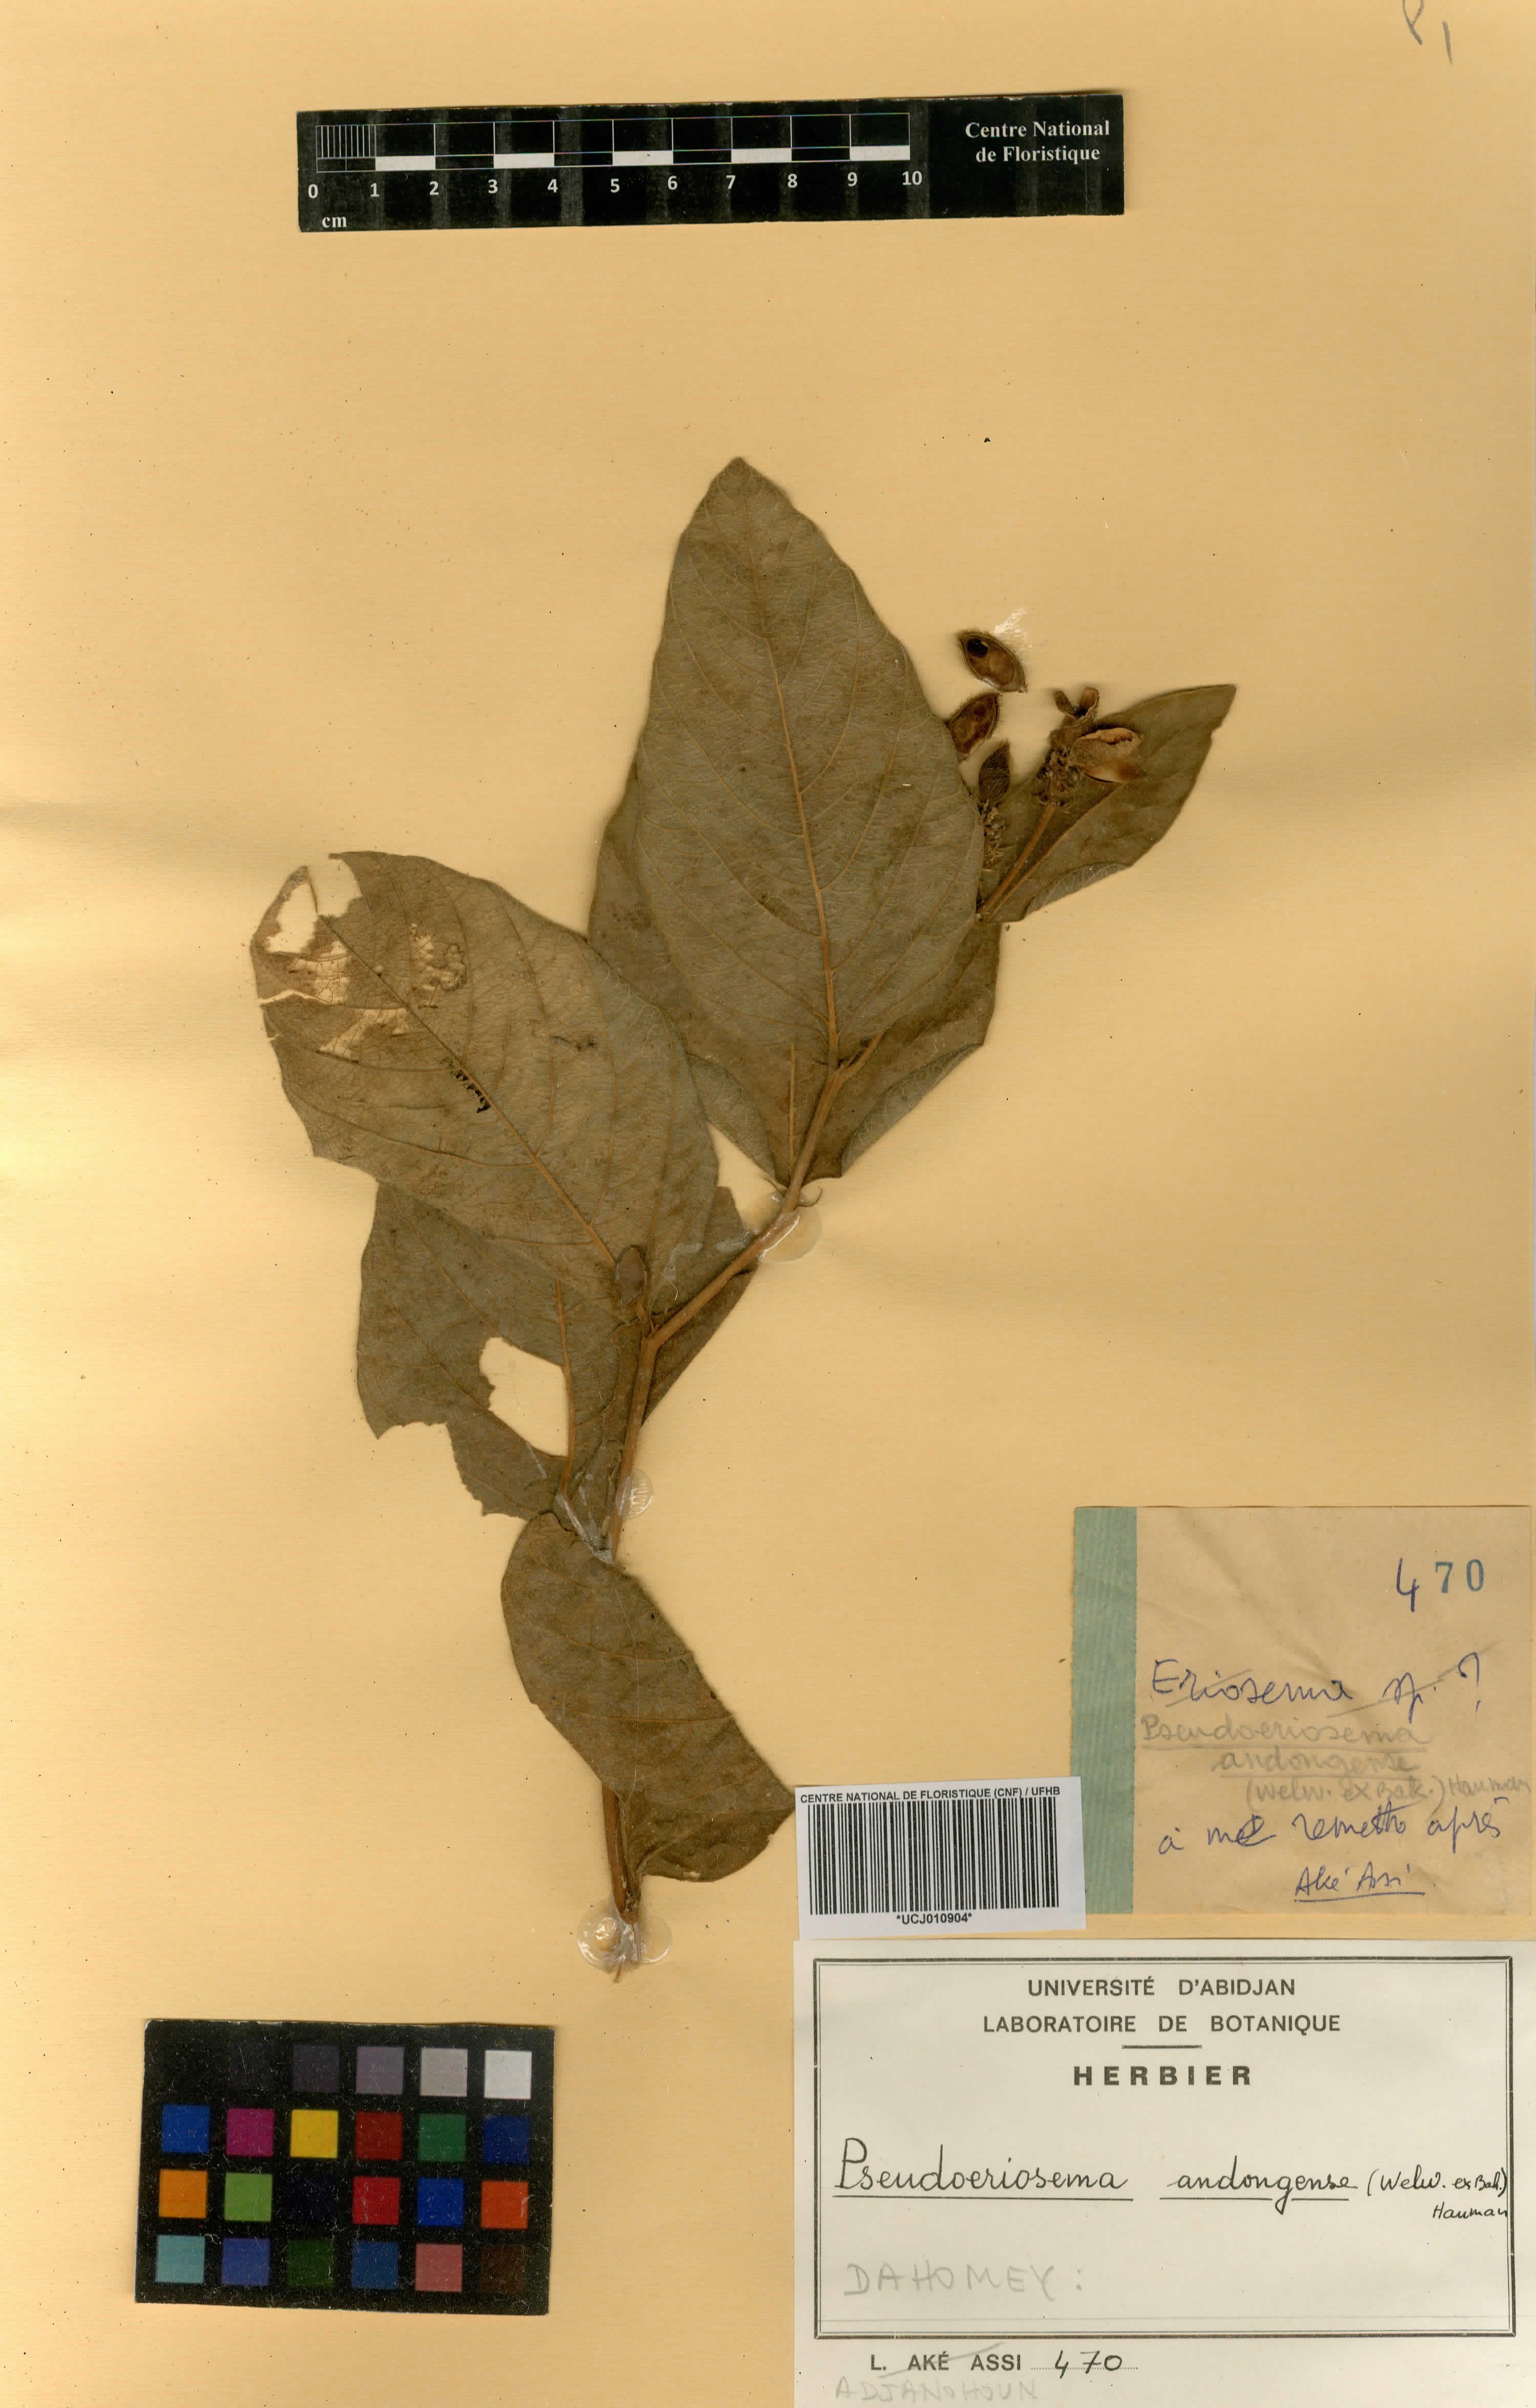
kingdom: Plantae
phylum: Tracheophyta
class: Magnoliopsida
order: Fabales
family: Fabaceae
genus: Pseudoeriosema
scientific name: Pseudoeriosema andongense
